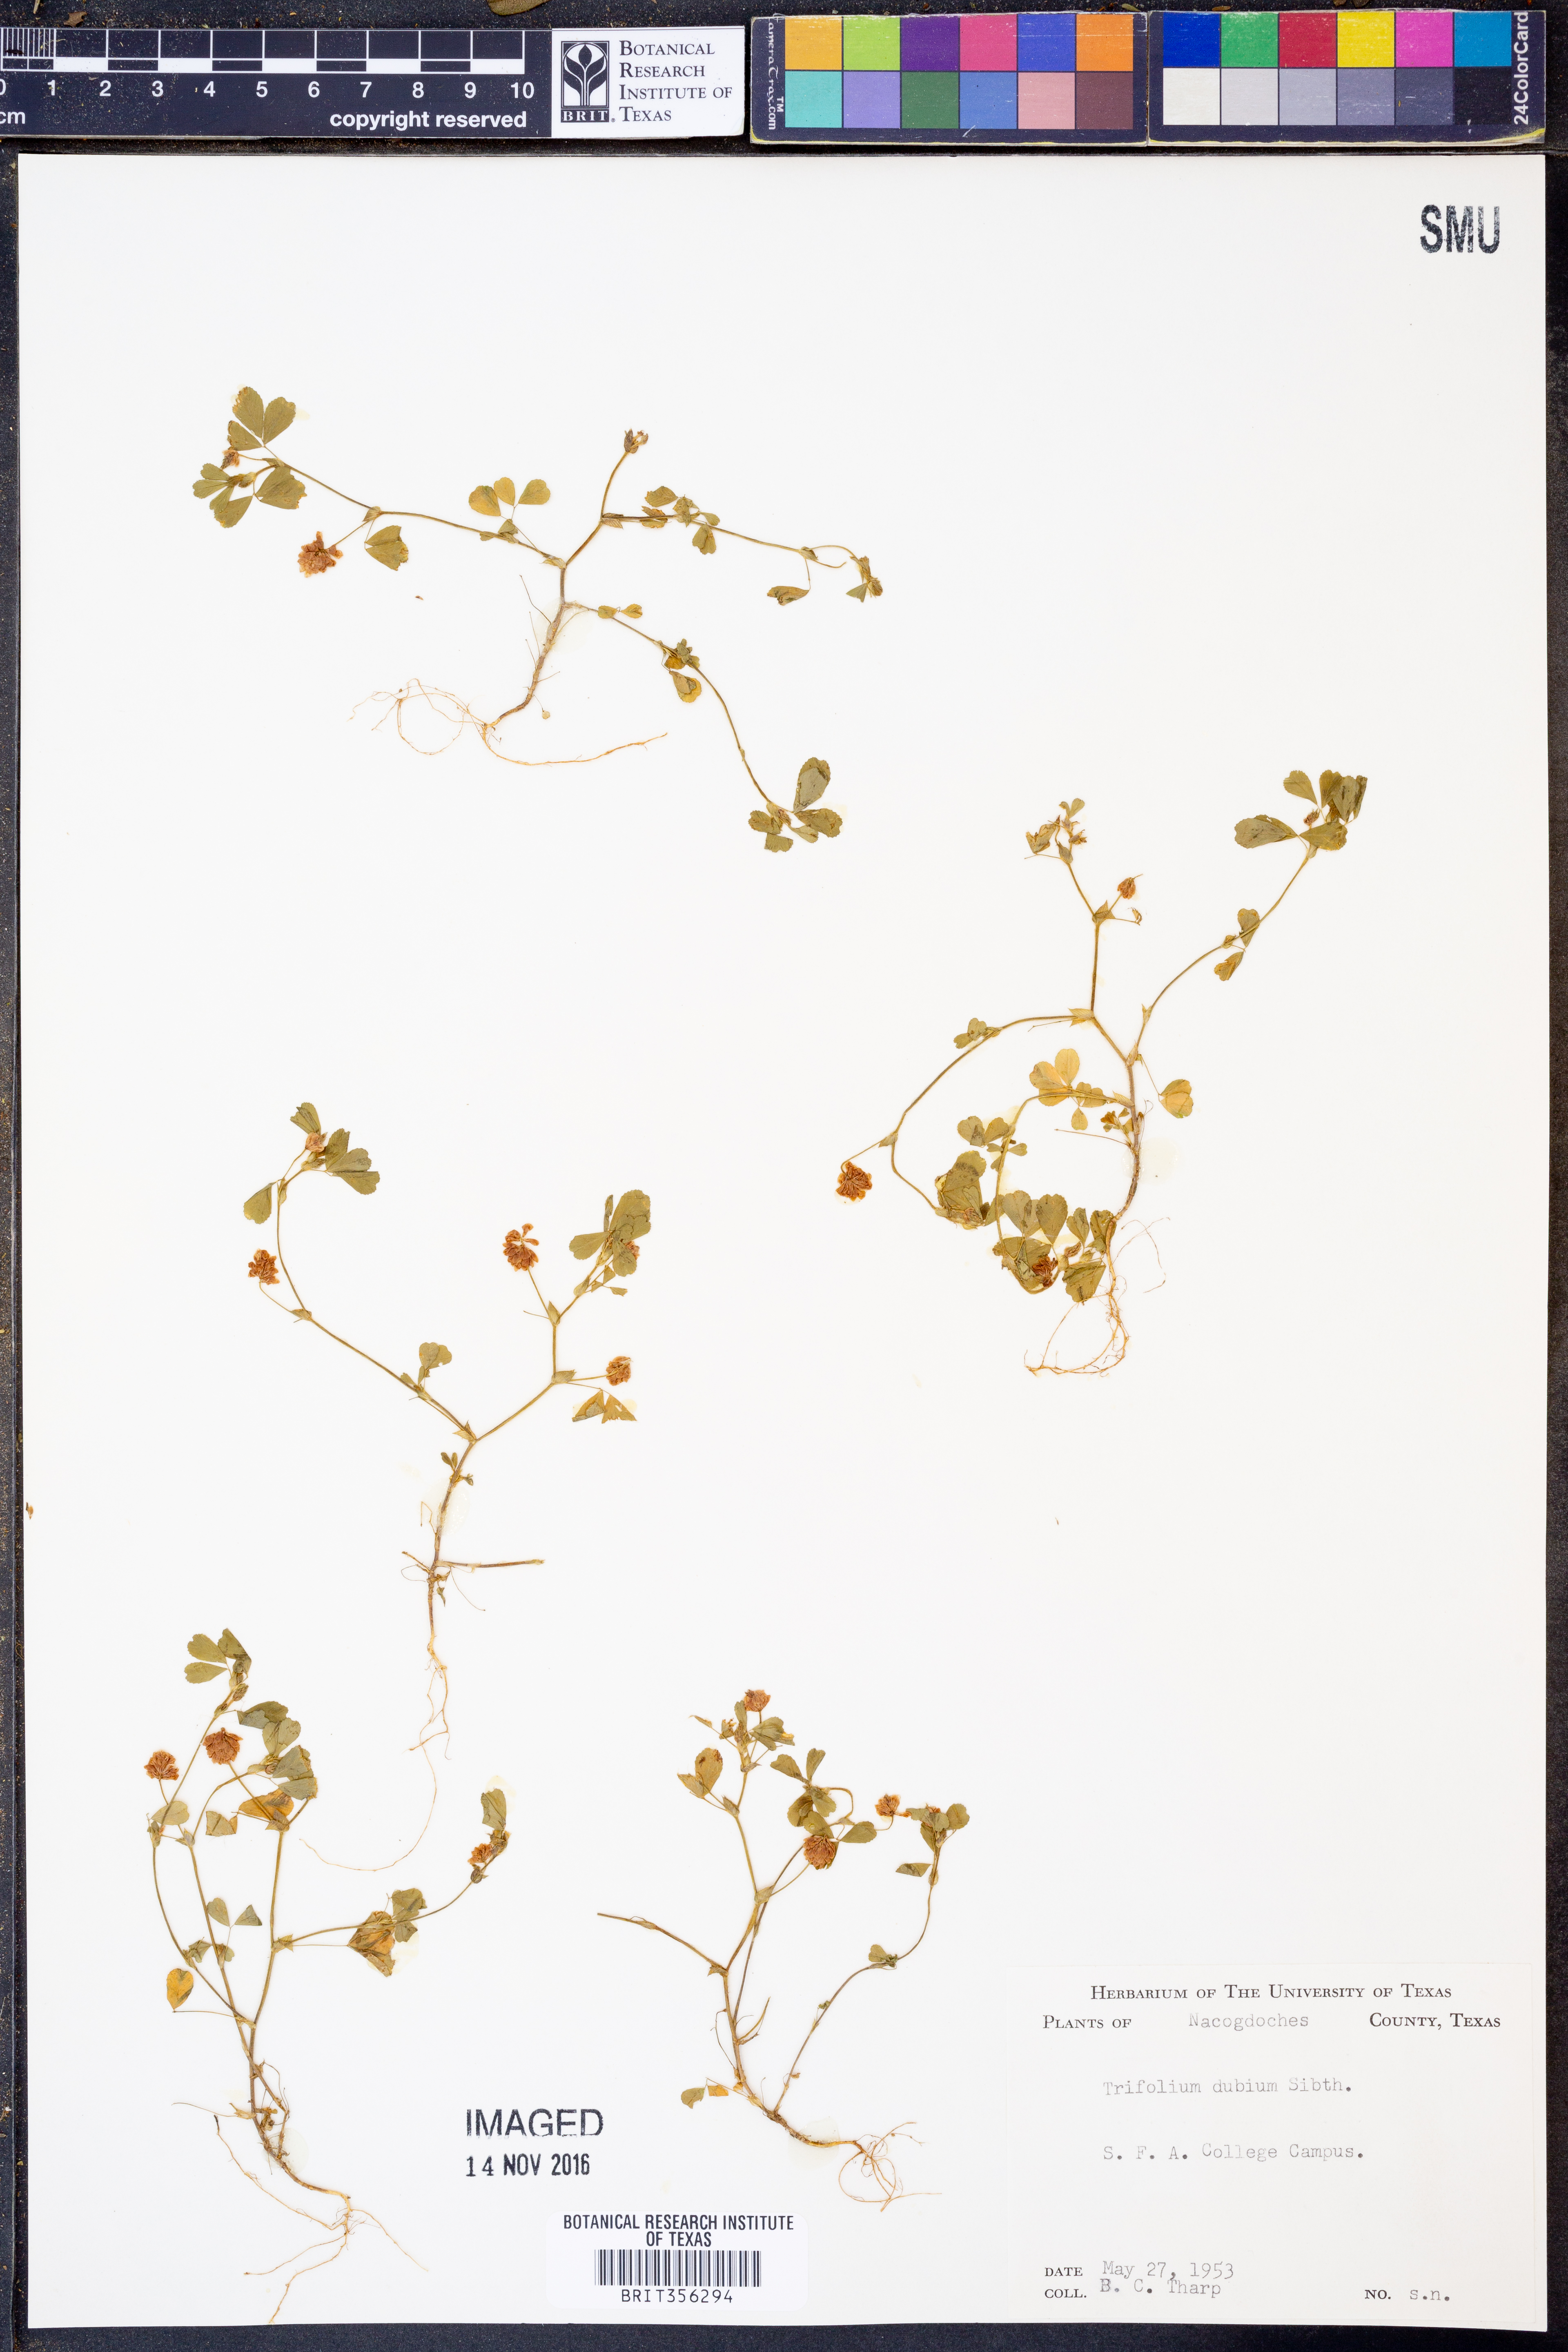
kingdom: Plantae
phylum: Tracheophyta
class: Magnoliopsida
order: Fabales
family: Fabaceae
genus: Trifolium
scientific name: Trifolium dubium
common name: Suckling clover
